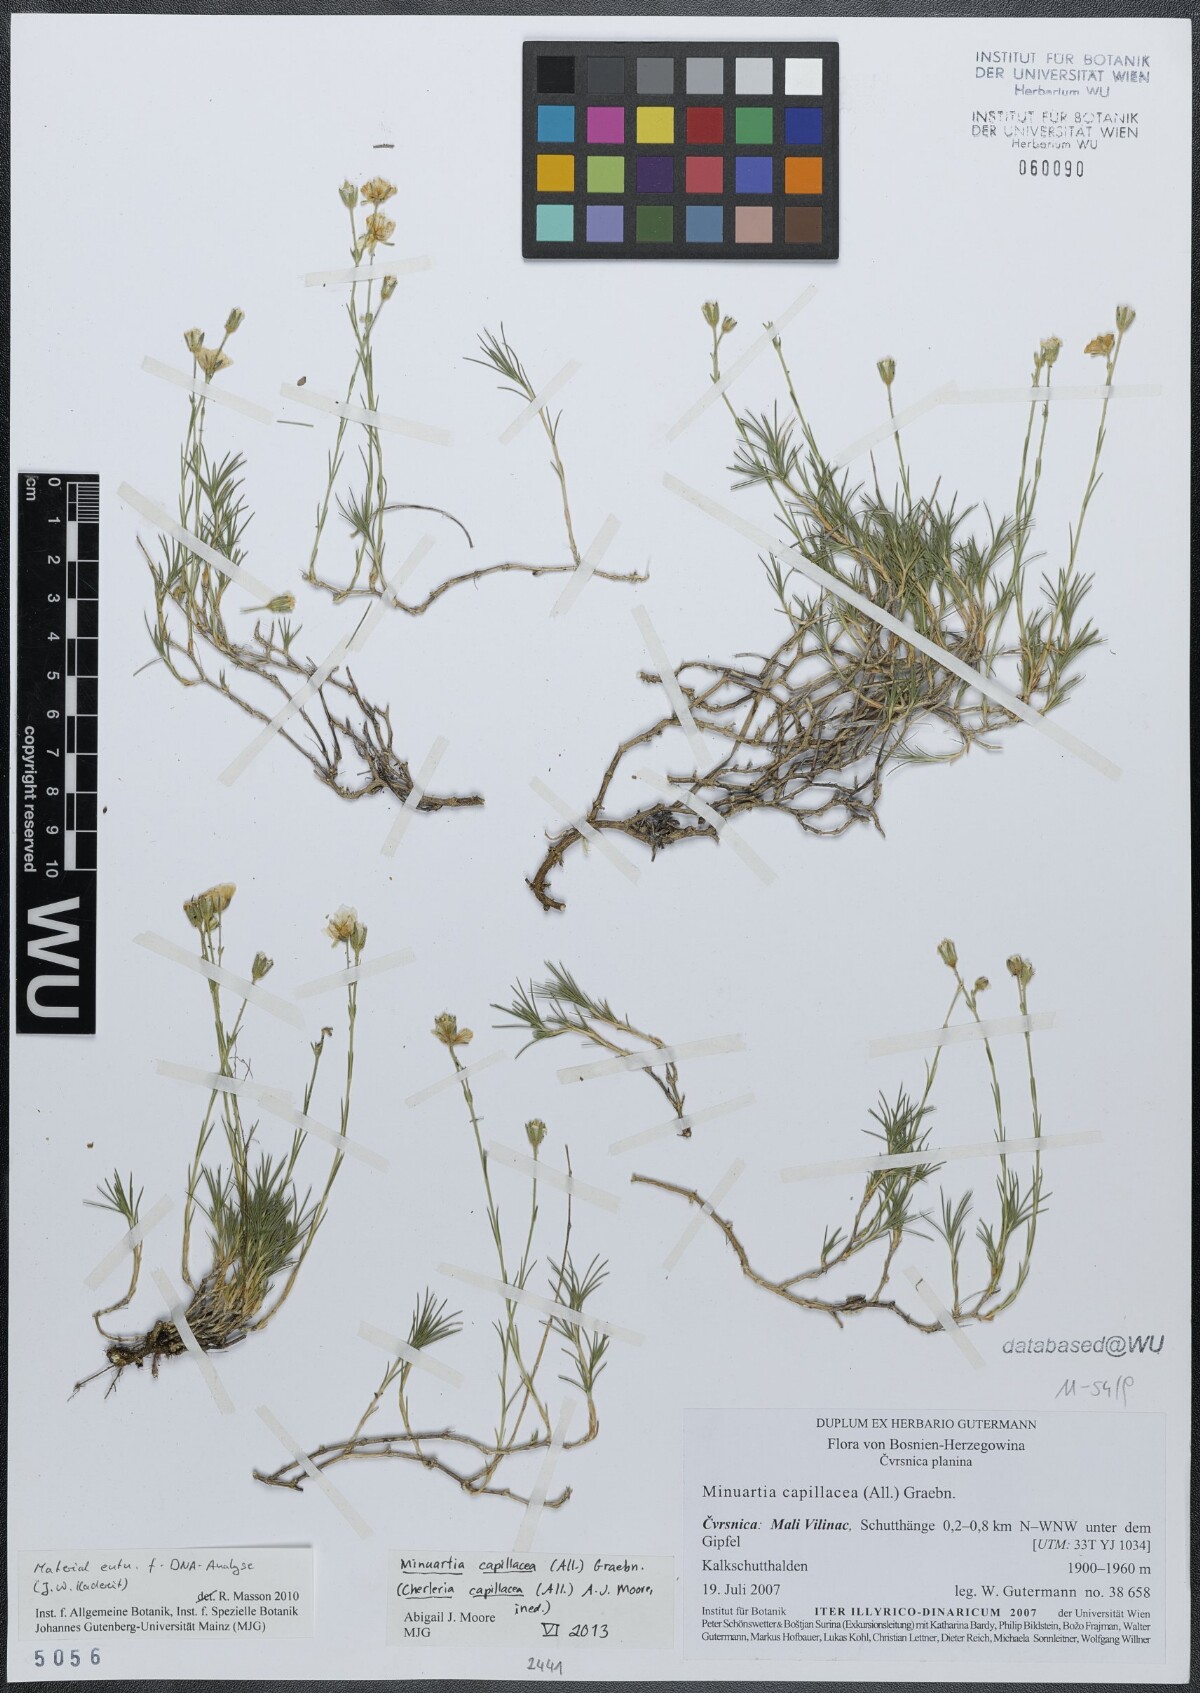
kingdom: Plantae
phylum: Tracheophyta
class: Magnoliopsida
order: Caryophyllales
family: Caryophyllaceae
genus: Cherleria
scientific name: Cherleria capillacea
